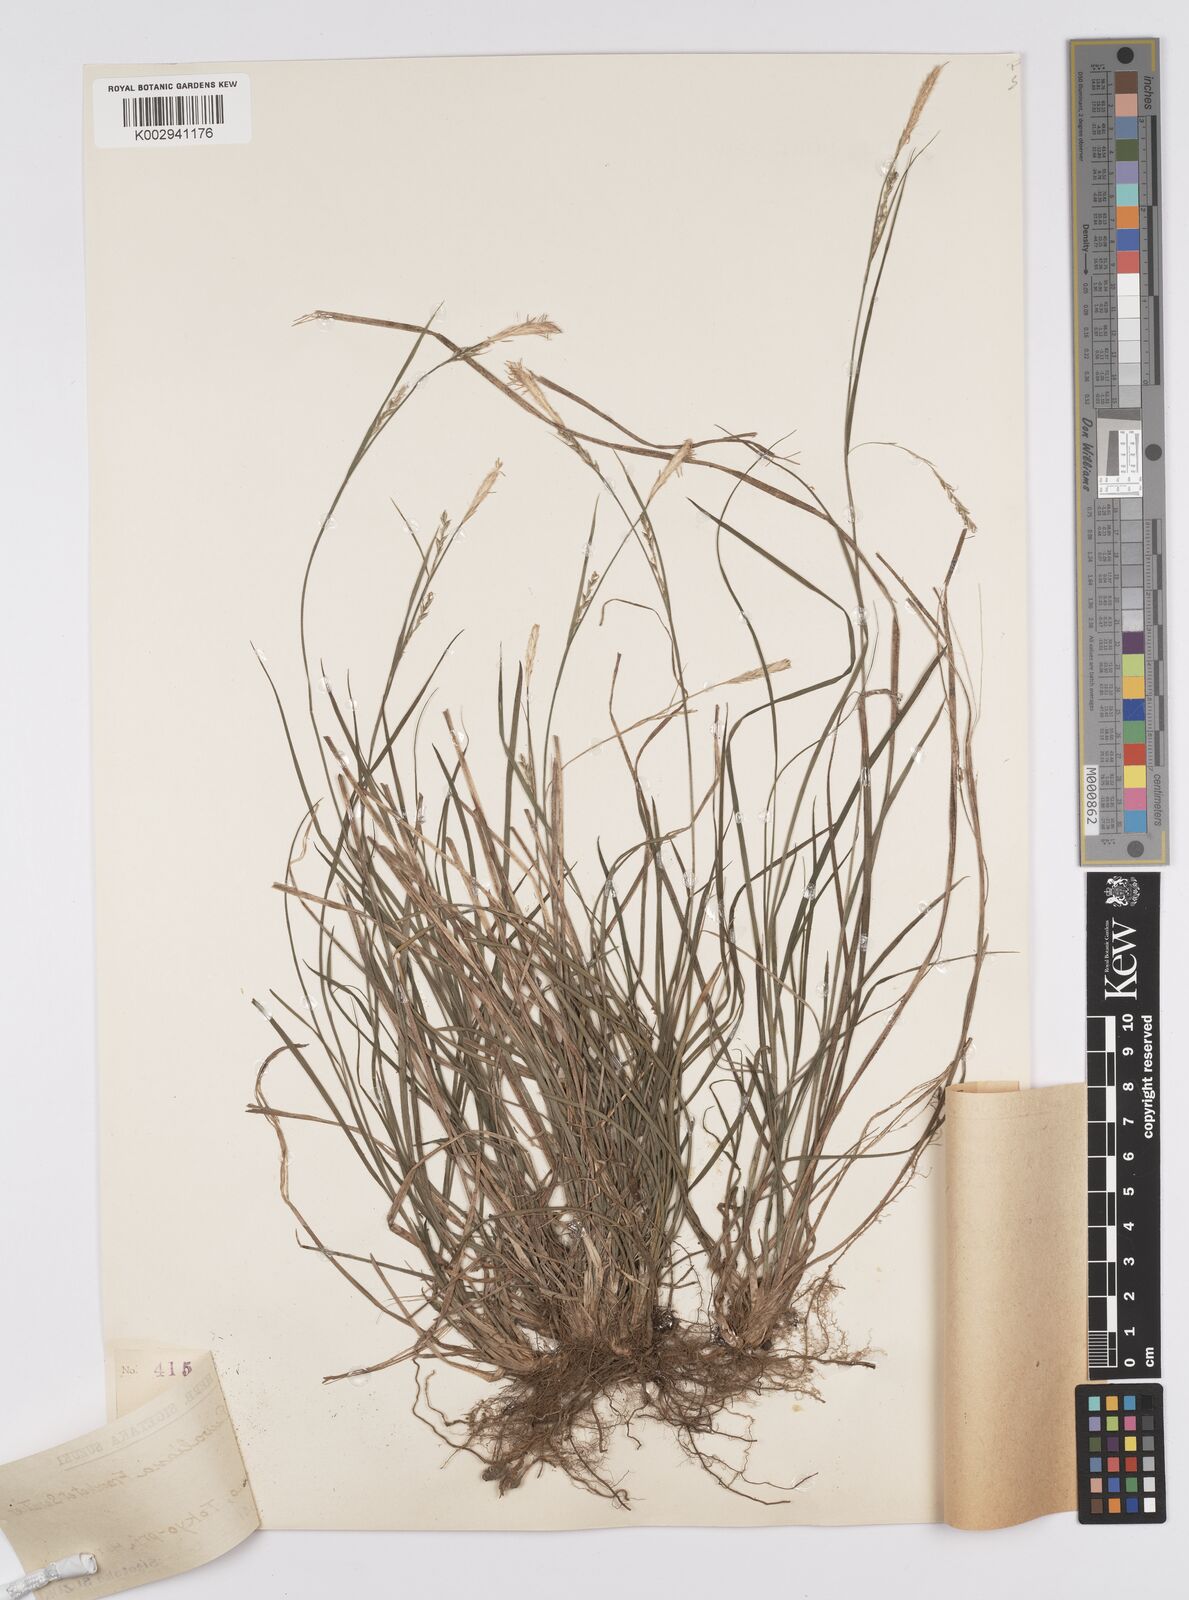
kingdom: Plantae
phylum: Tracheophyta
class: Liliopsida
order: Poales
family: Cyperaceae
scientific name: Cyperaceae
